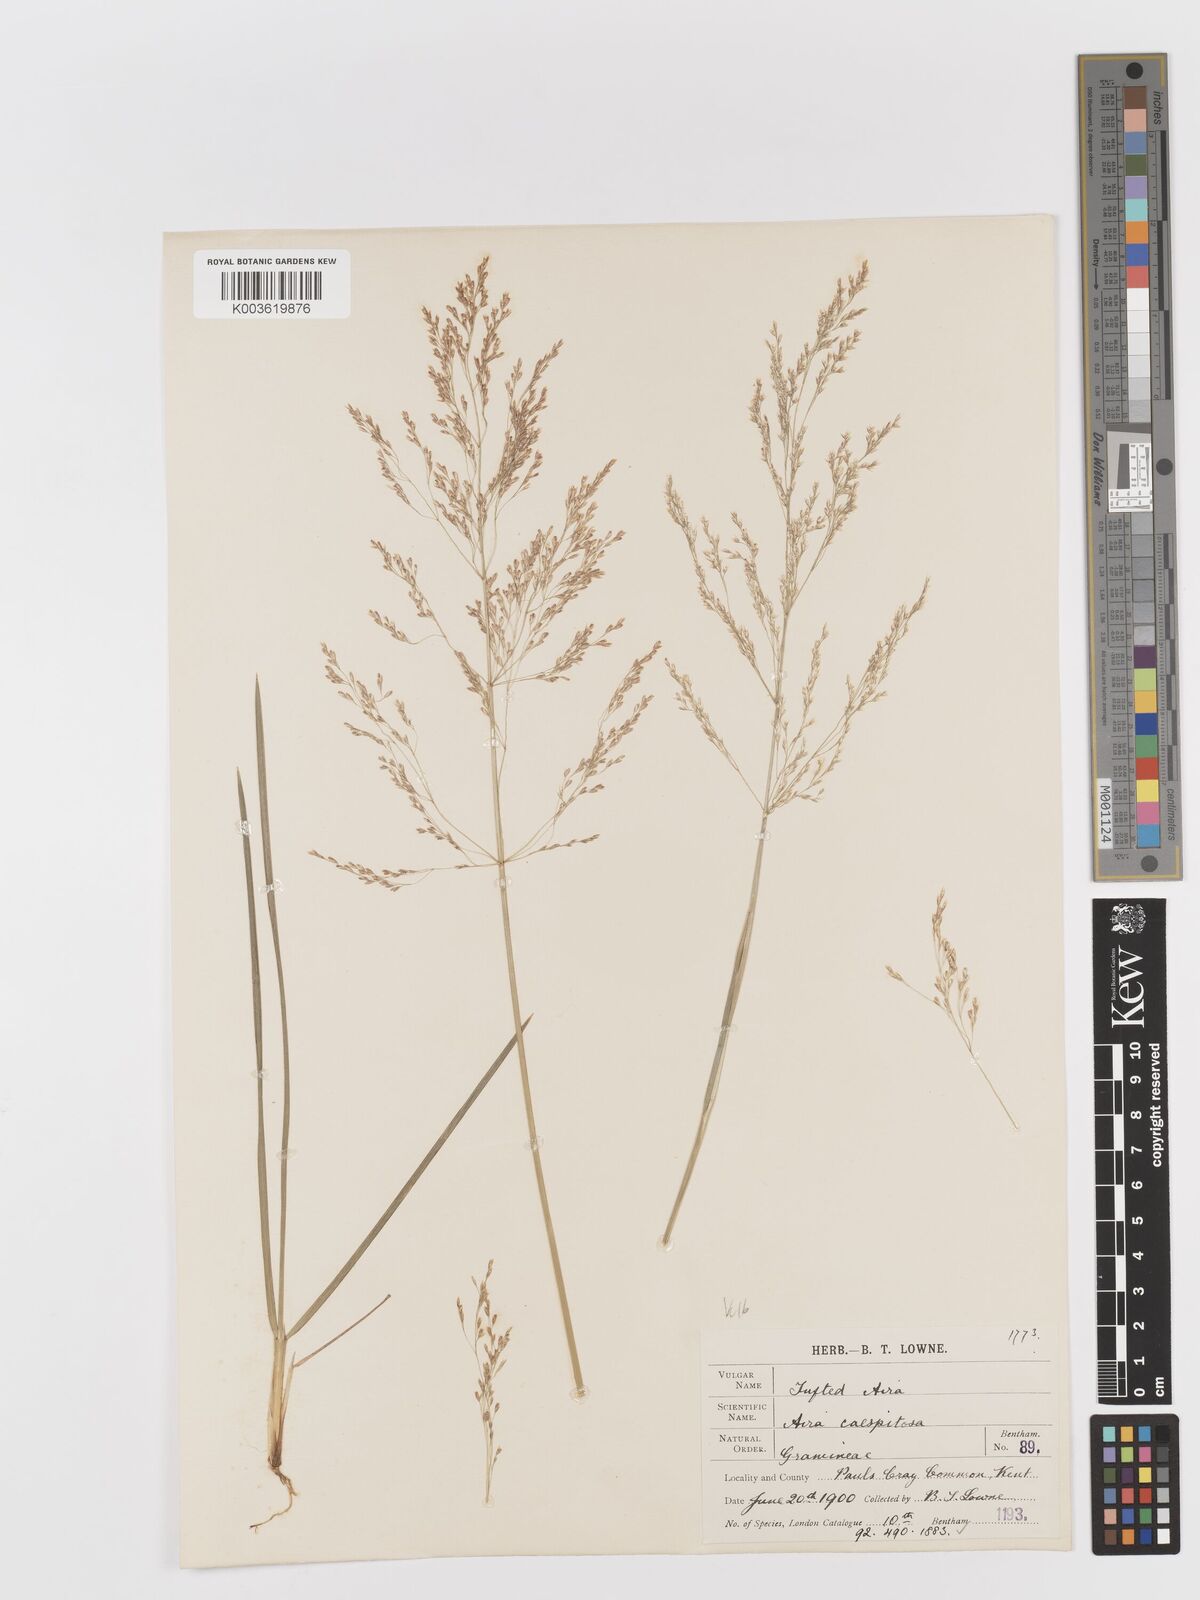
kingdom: Plantae
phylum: Tracheophyta
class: Liliopsida
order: Poales
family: Poaceae
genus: Deschampsia
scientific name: Deschampsia cespitosa
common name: Tufted hair-grass
